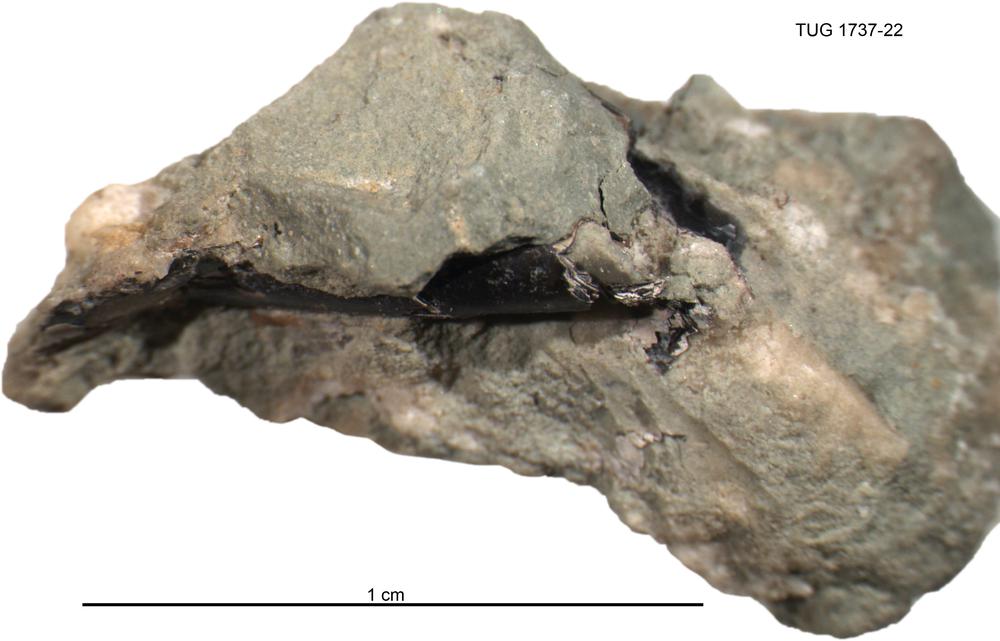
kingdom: Animalia
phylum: Cnidaria
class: Scyphozoa
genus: Sphenothallus
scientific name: Sphenothallus
